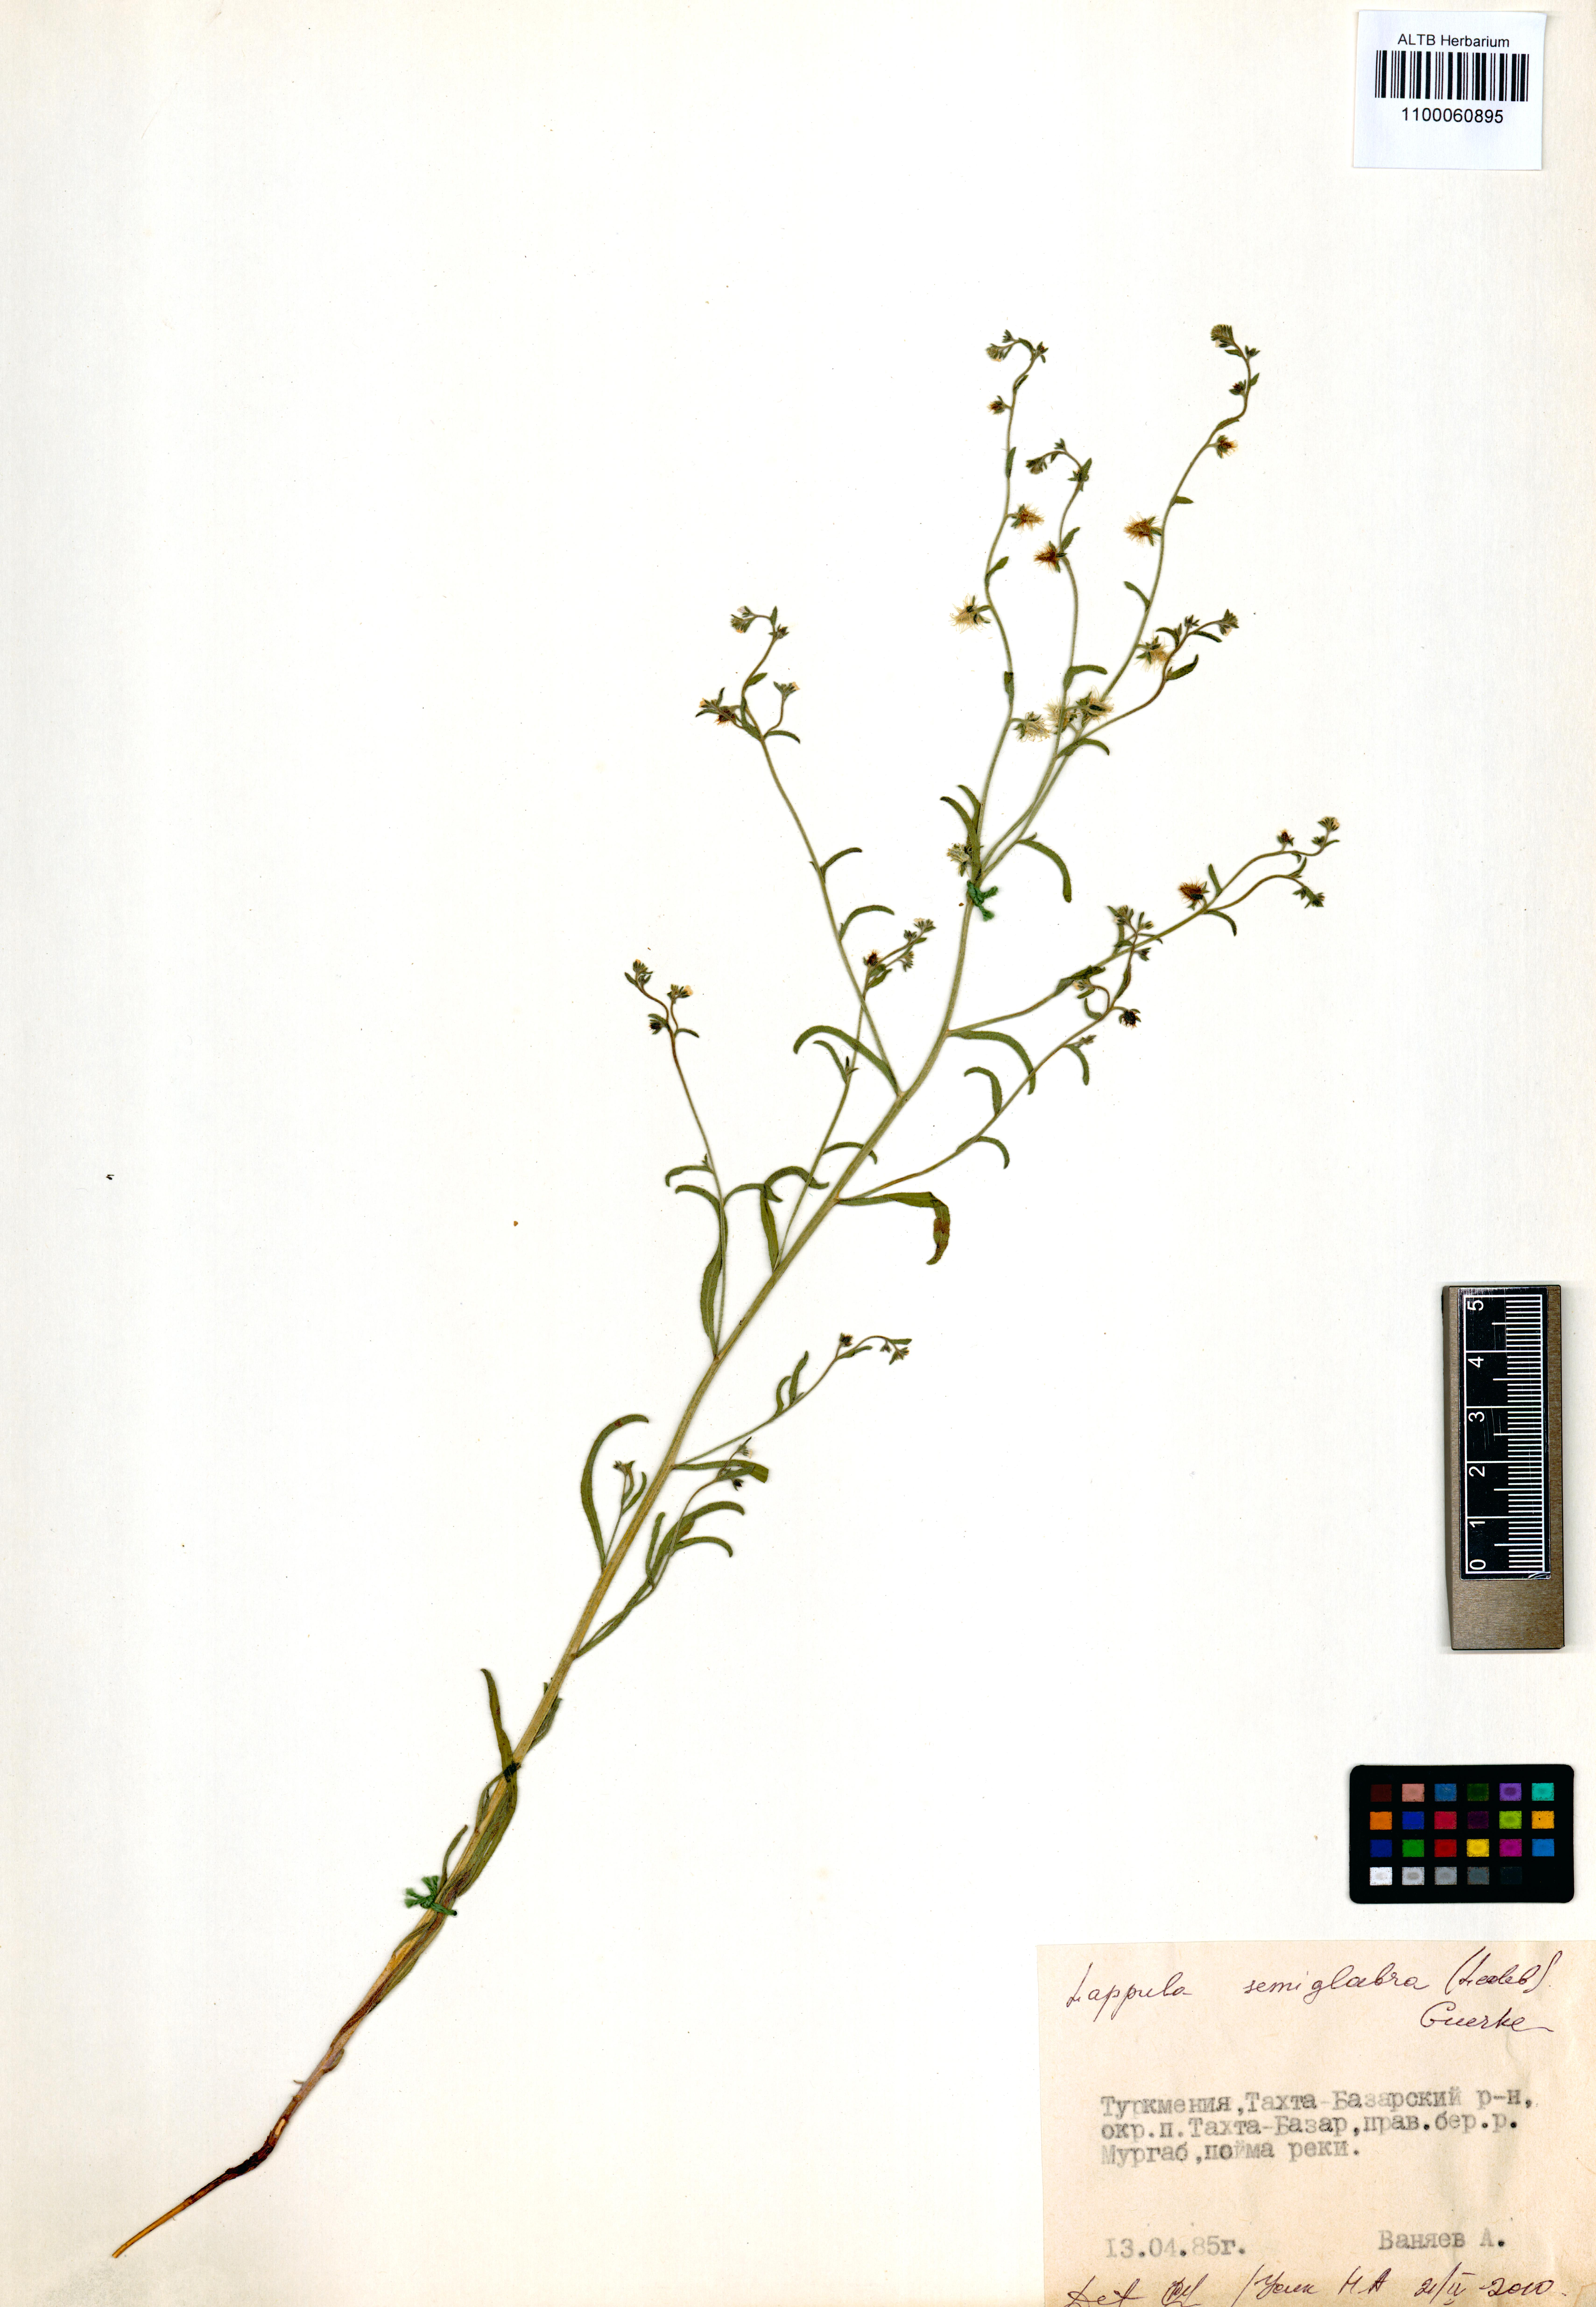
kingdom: Plantae
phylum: Tracheophyta
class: Magnoliopsida
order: Boraginales
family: Boraginaceae
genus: Lappula
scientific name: Lappula patula
